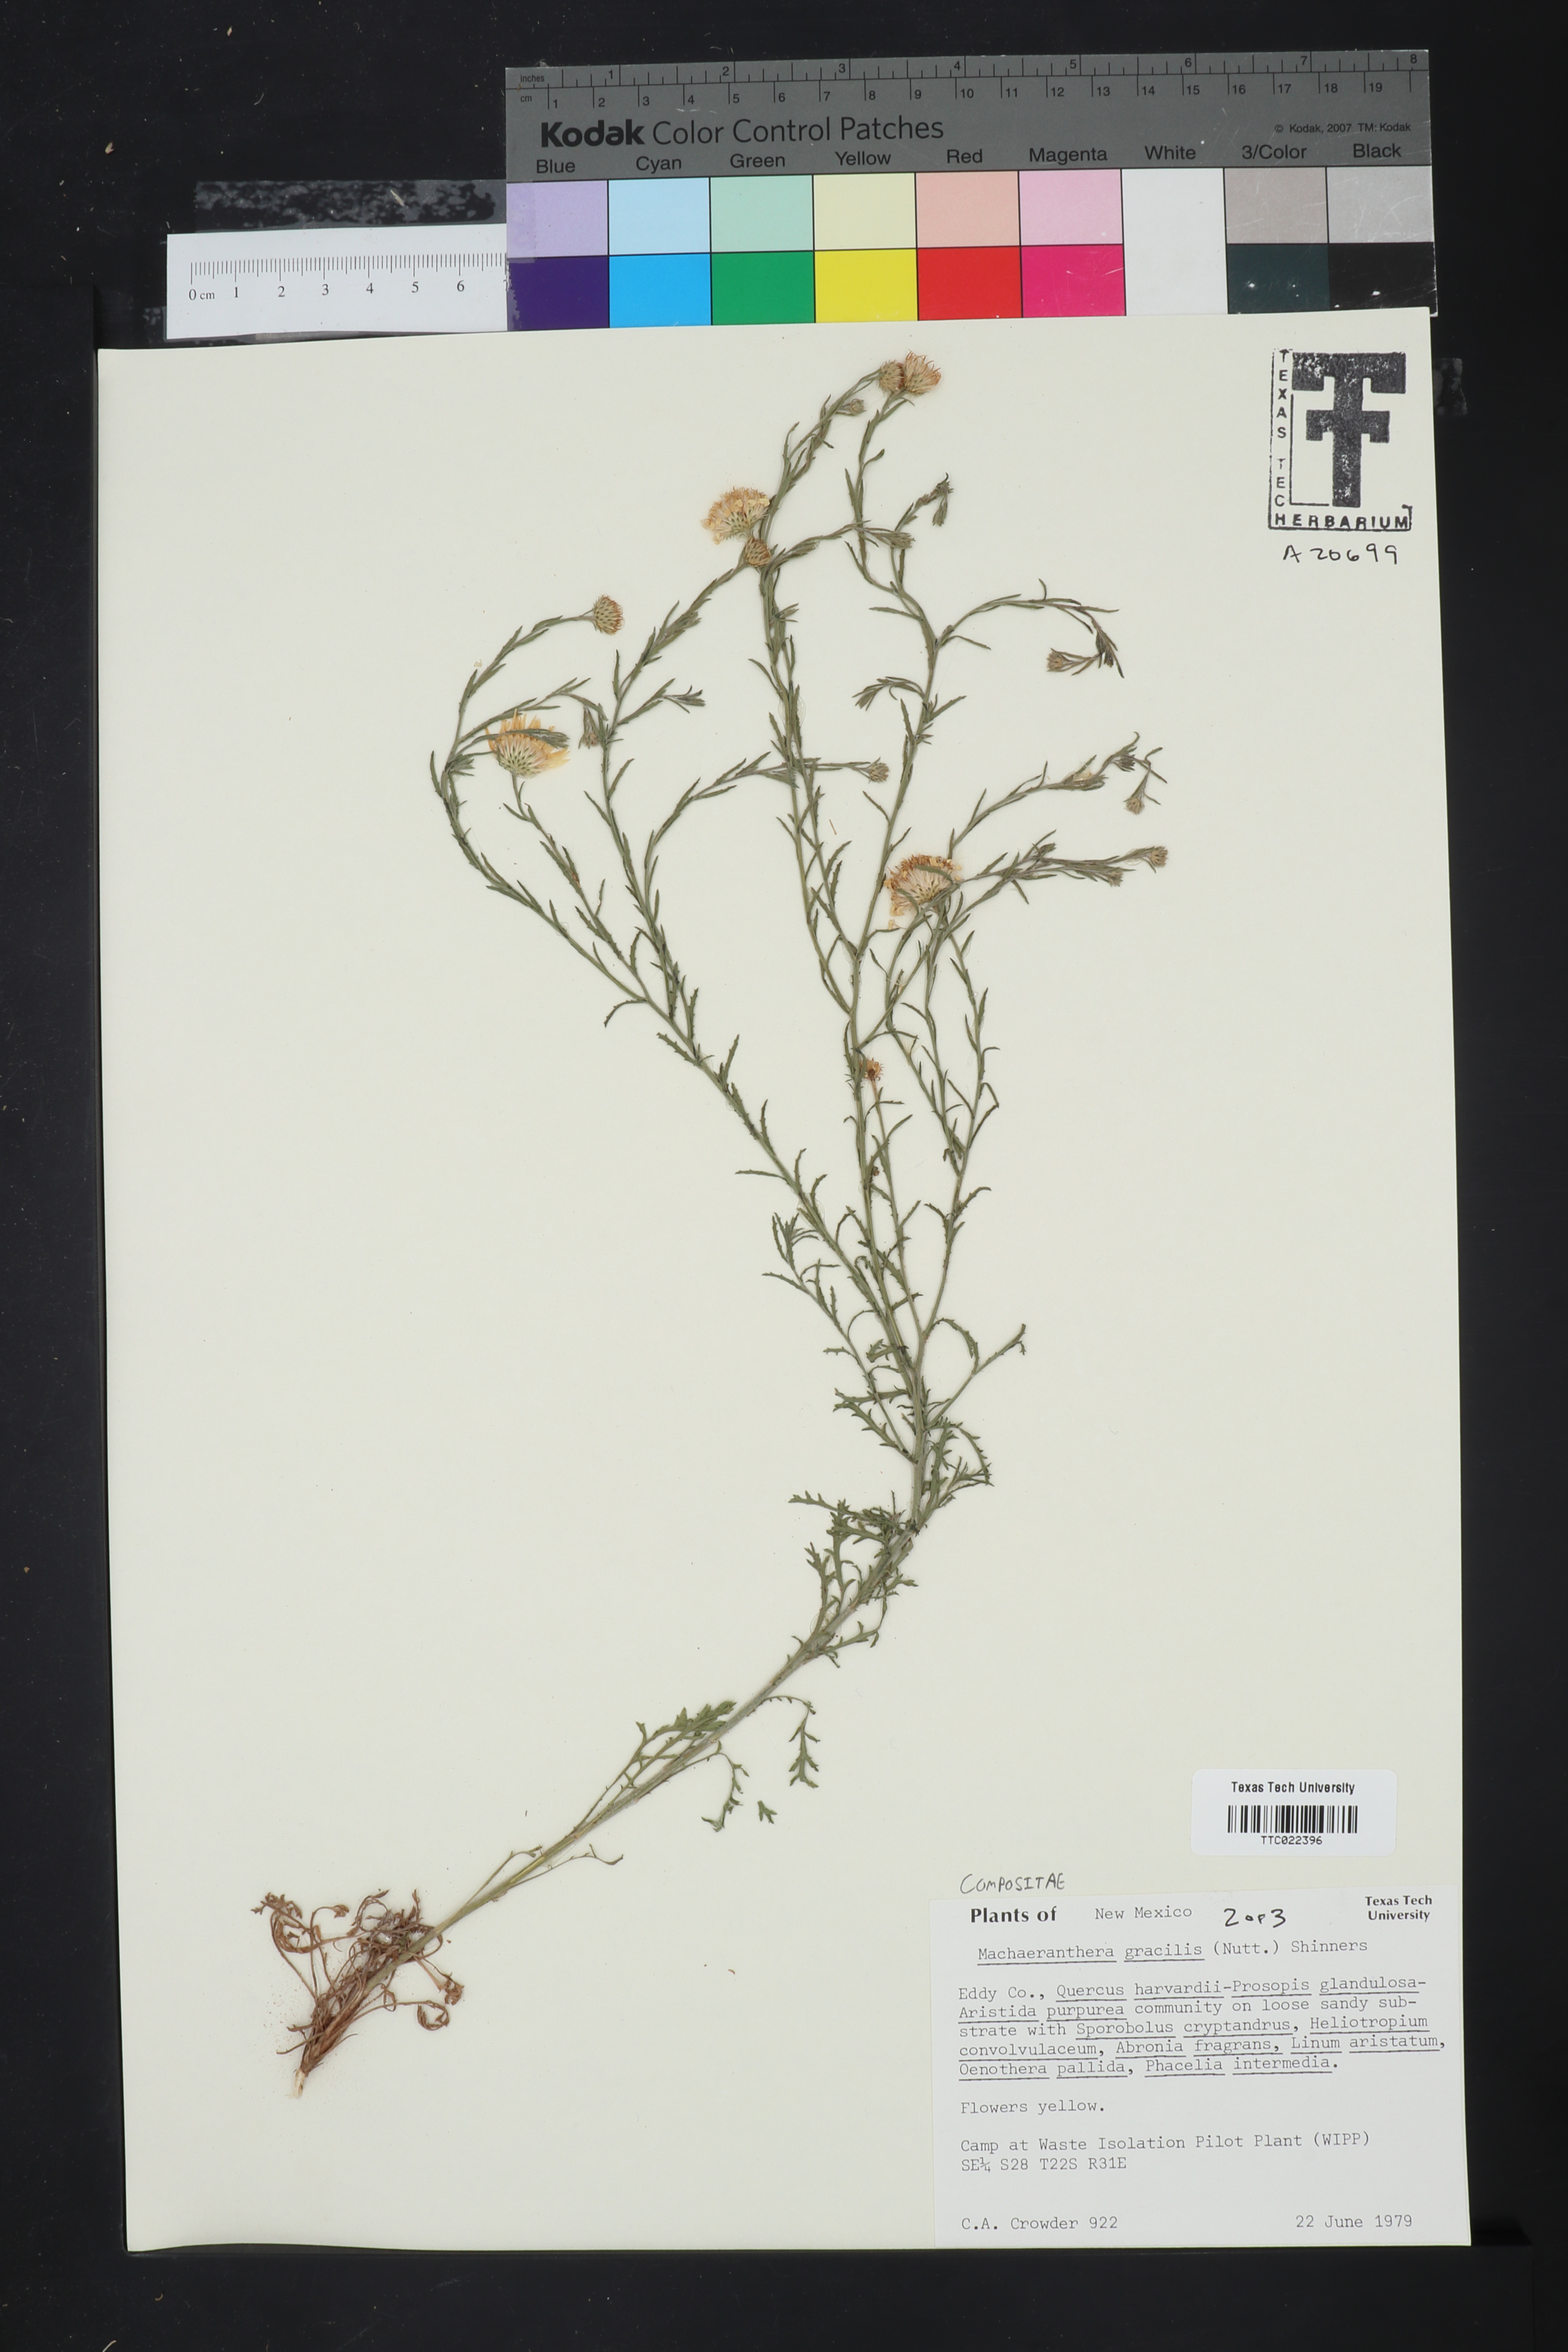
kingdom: Plantae
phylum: Tracheophyta
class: Magnoliopsida
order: Asterales
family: Asteraceae
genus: Xanthisma
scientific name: Xanthisma gracile
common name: Slender goldenweed
